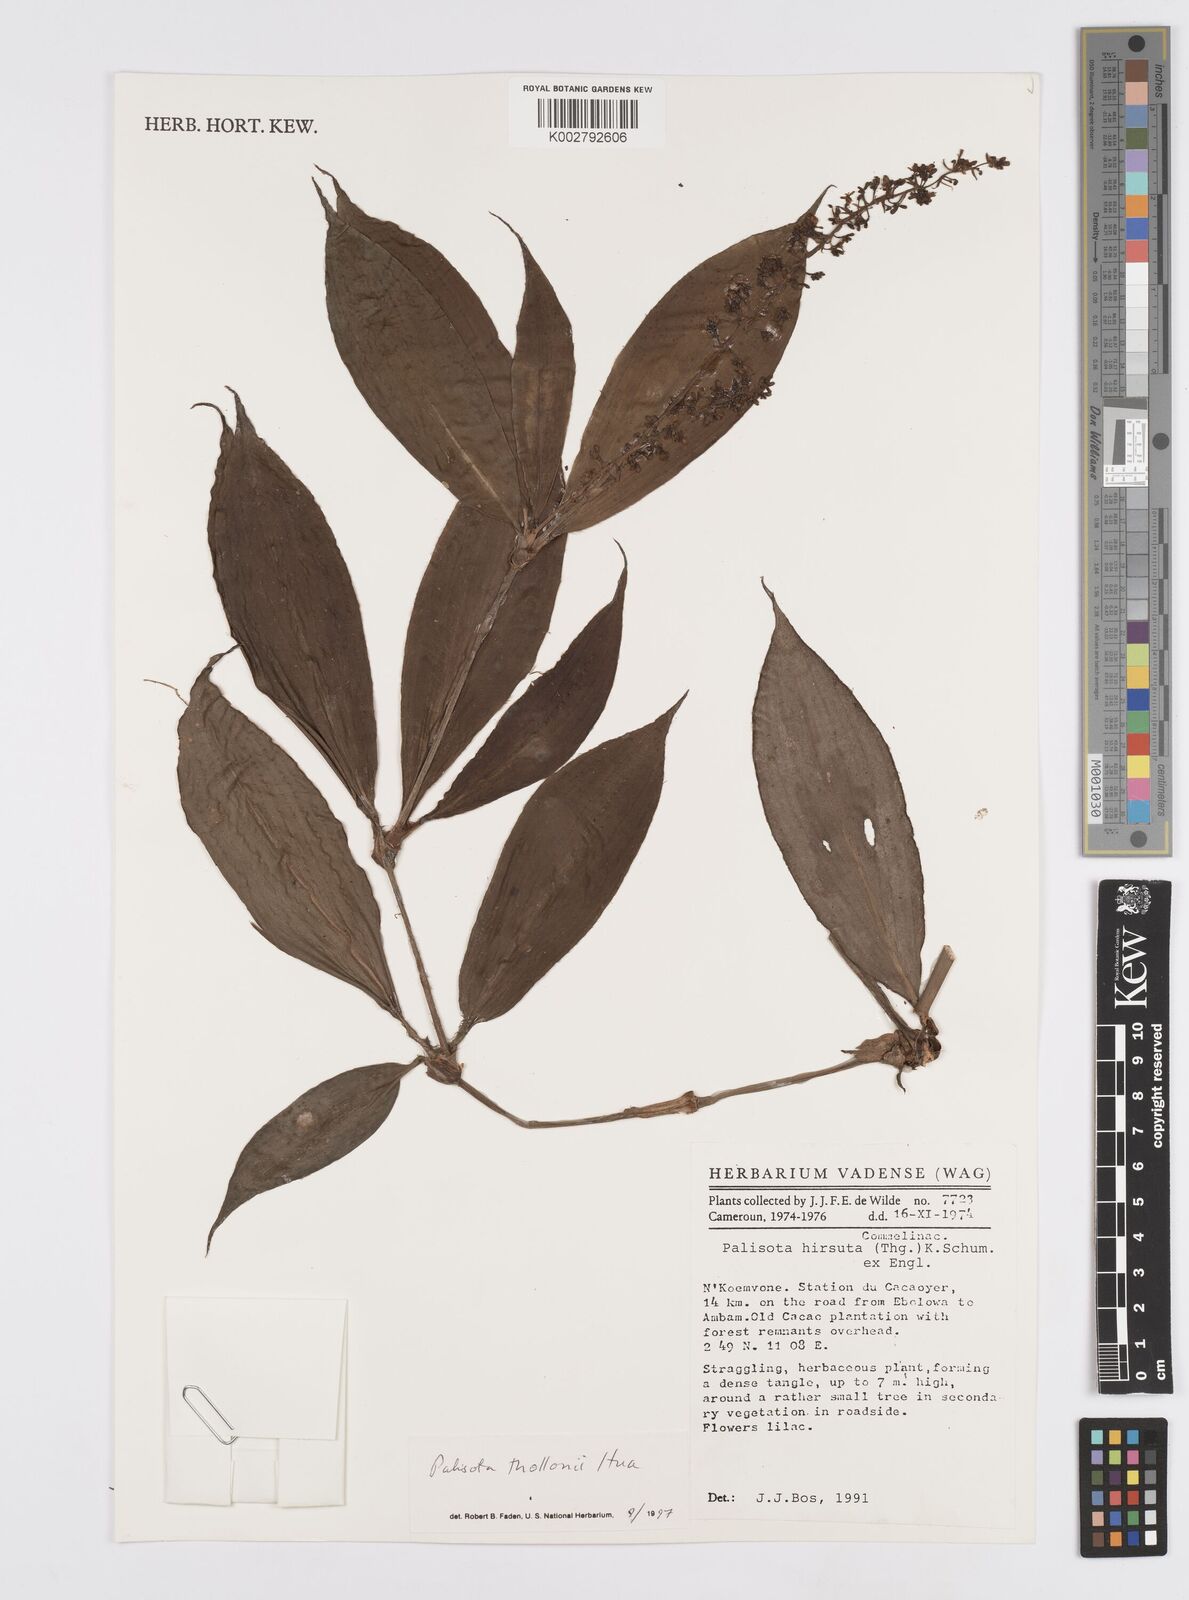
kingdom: Plantae
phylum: Tracheophyta
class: Liliopsida
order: Commelinales
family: Commelinaceae
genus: Palisota
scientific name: Palisota thollonii
